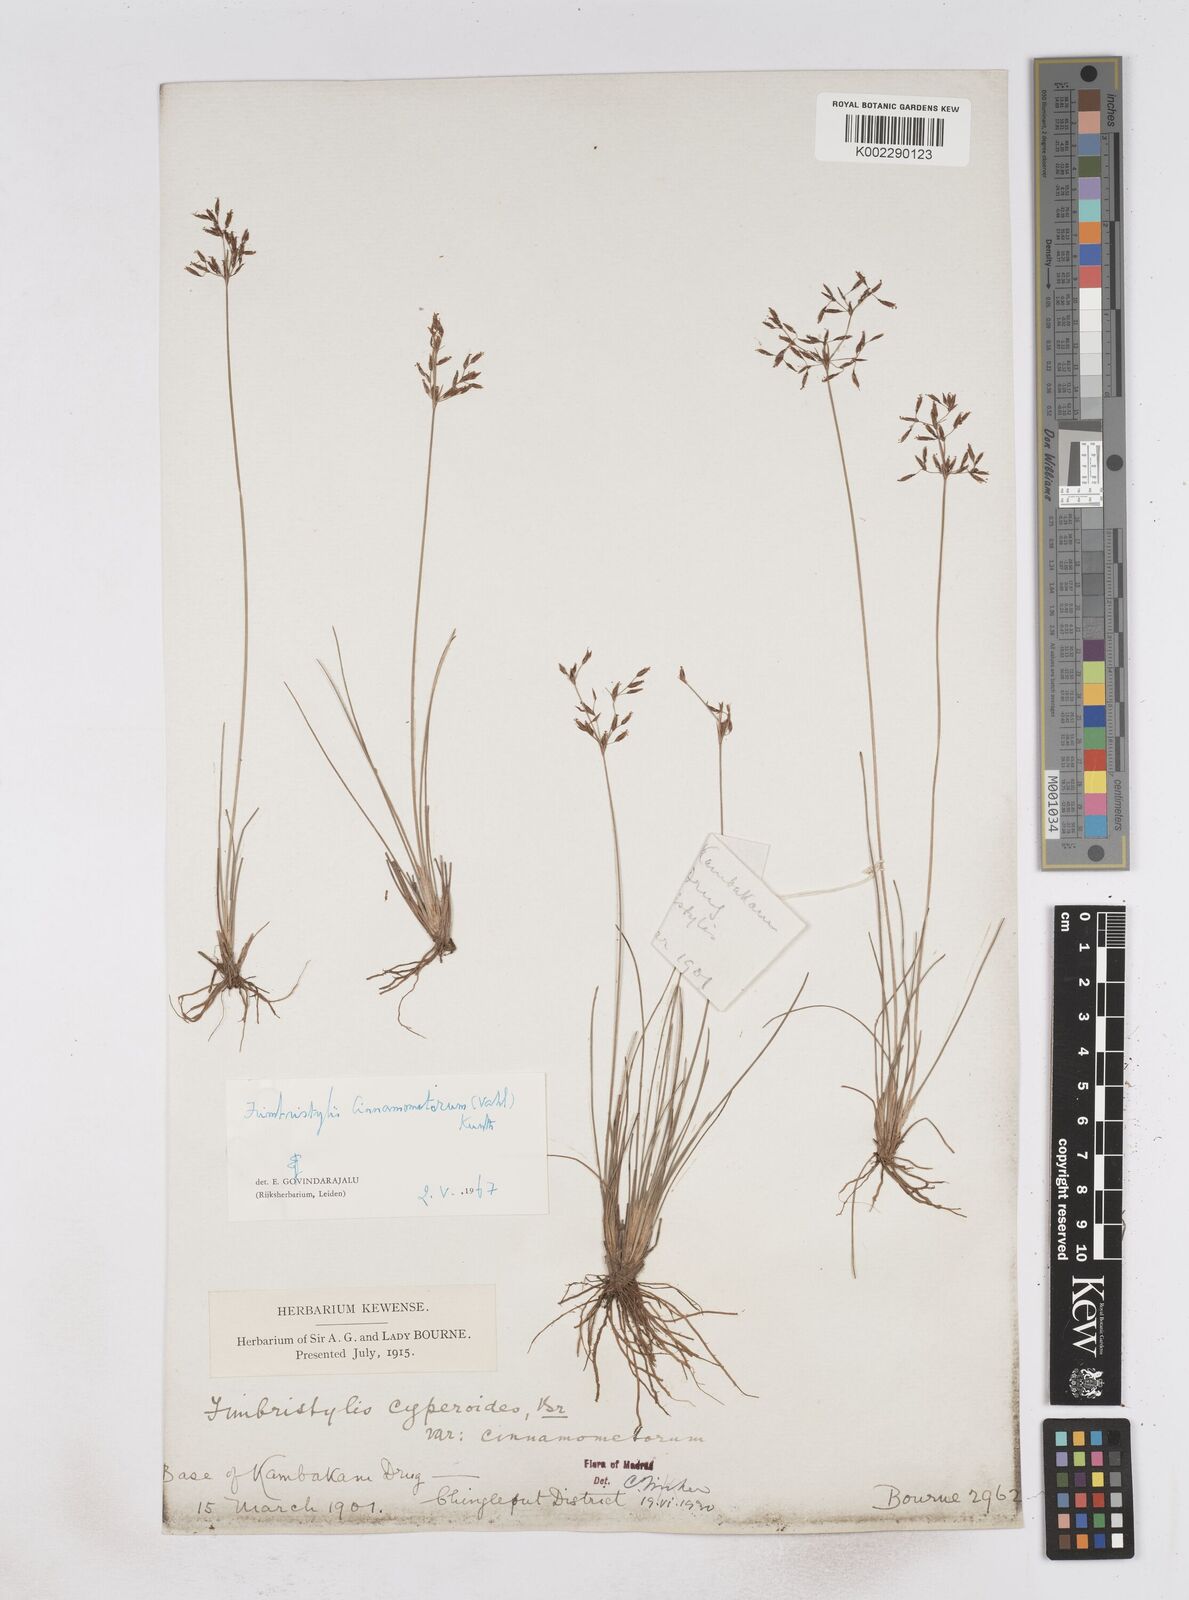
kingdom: Plantae
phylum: Tracheophyta
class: Liliopsida
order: Poales
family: Cyperaceae
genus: Fimbristylis
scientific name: Fimbristylis cinnamometorum
